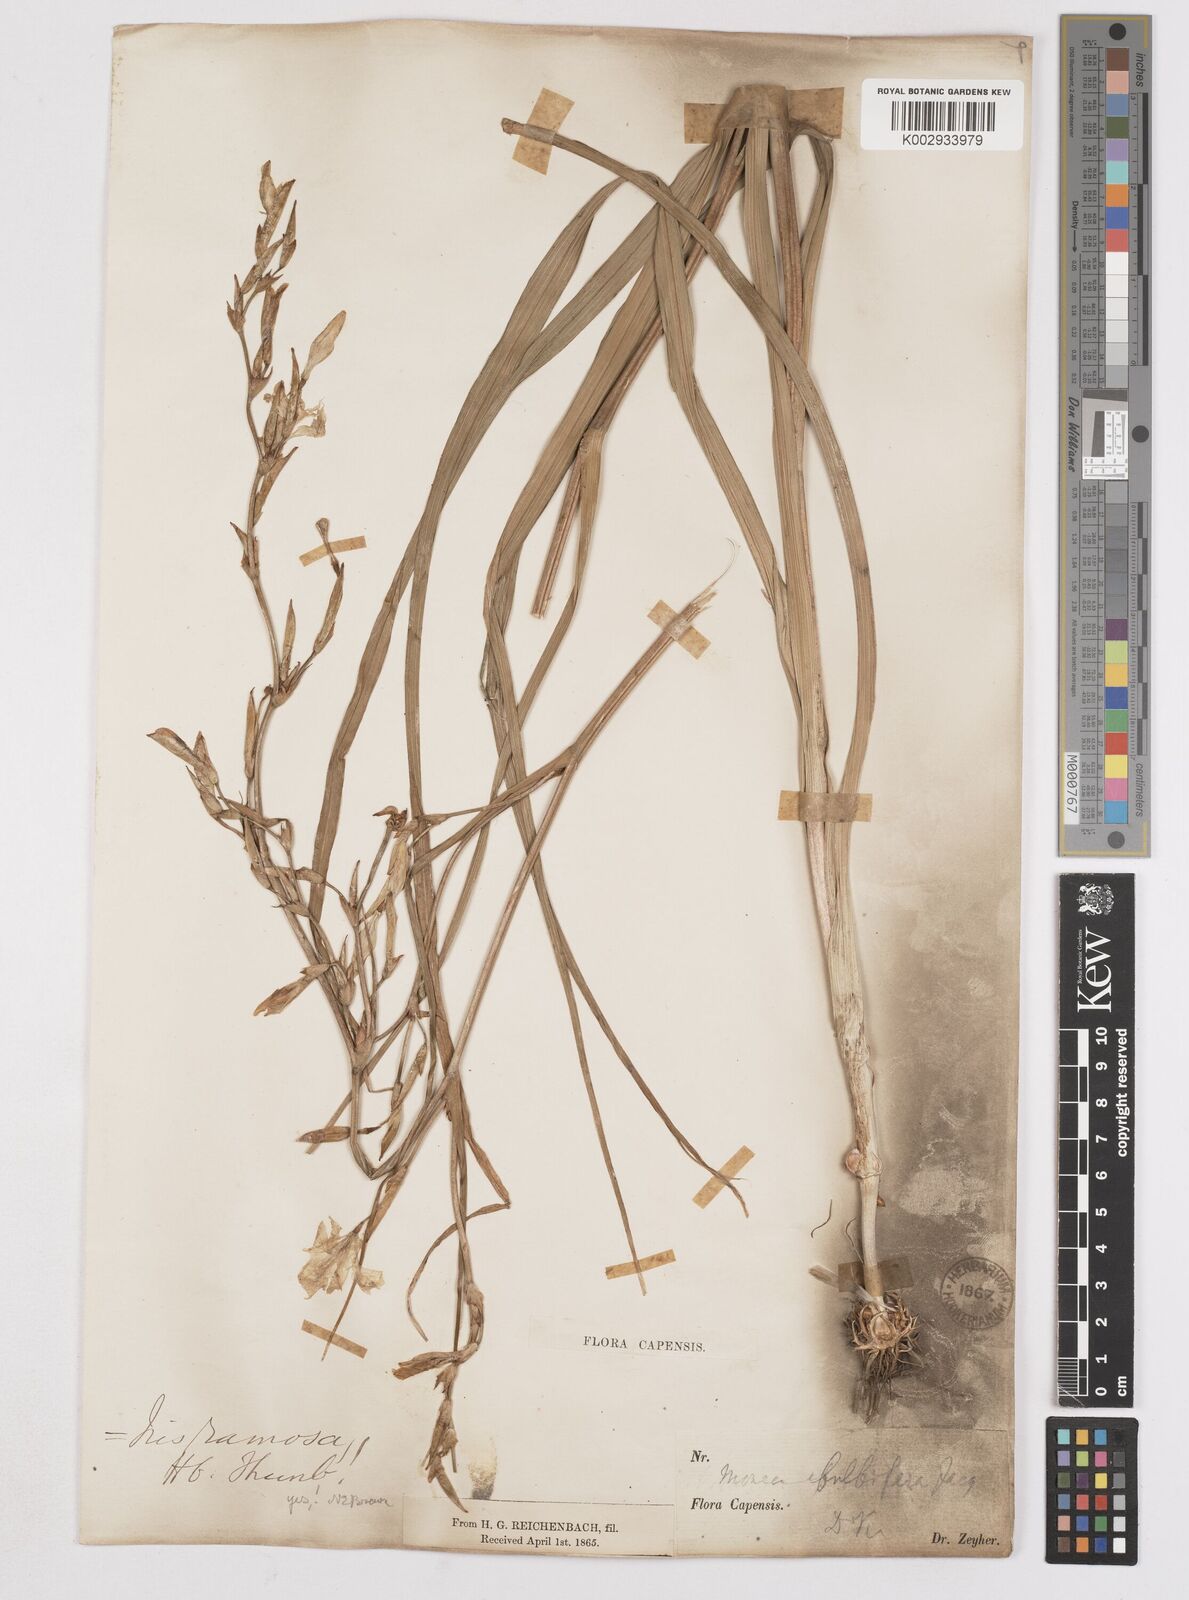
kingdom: Plantae
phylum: Tracheophyta
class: Liliopsida
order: Asparagales
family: Iridaceae
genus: Moraea
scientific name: Moraea ramosissima
